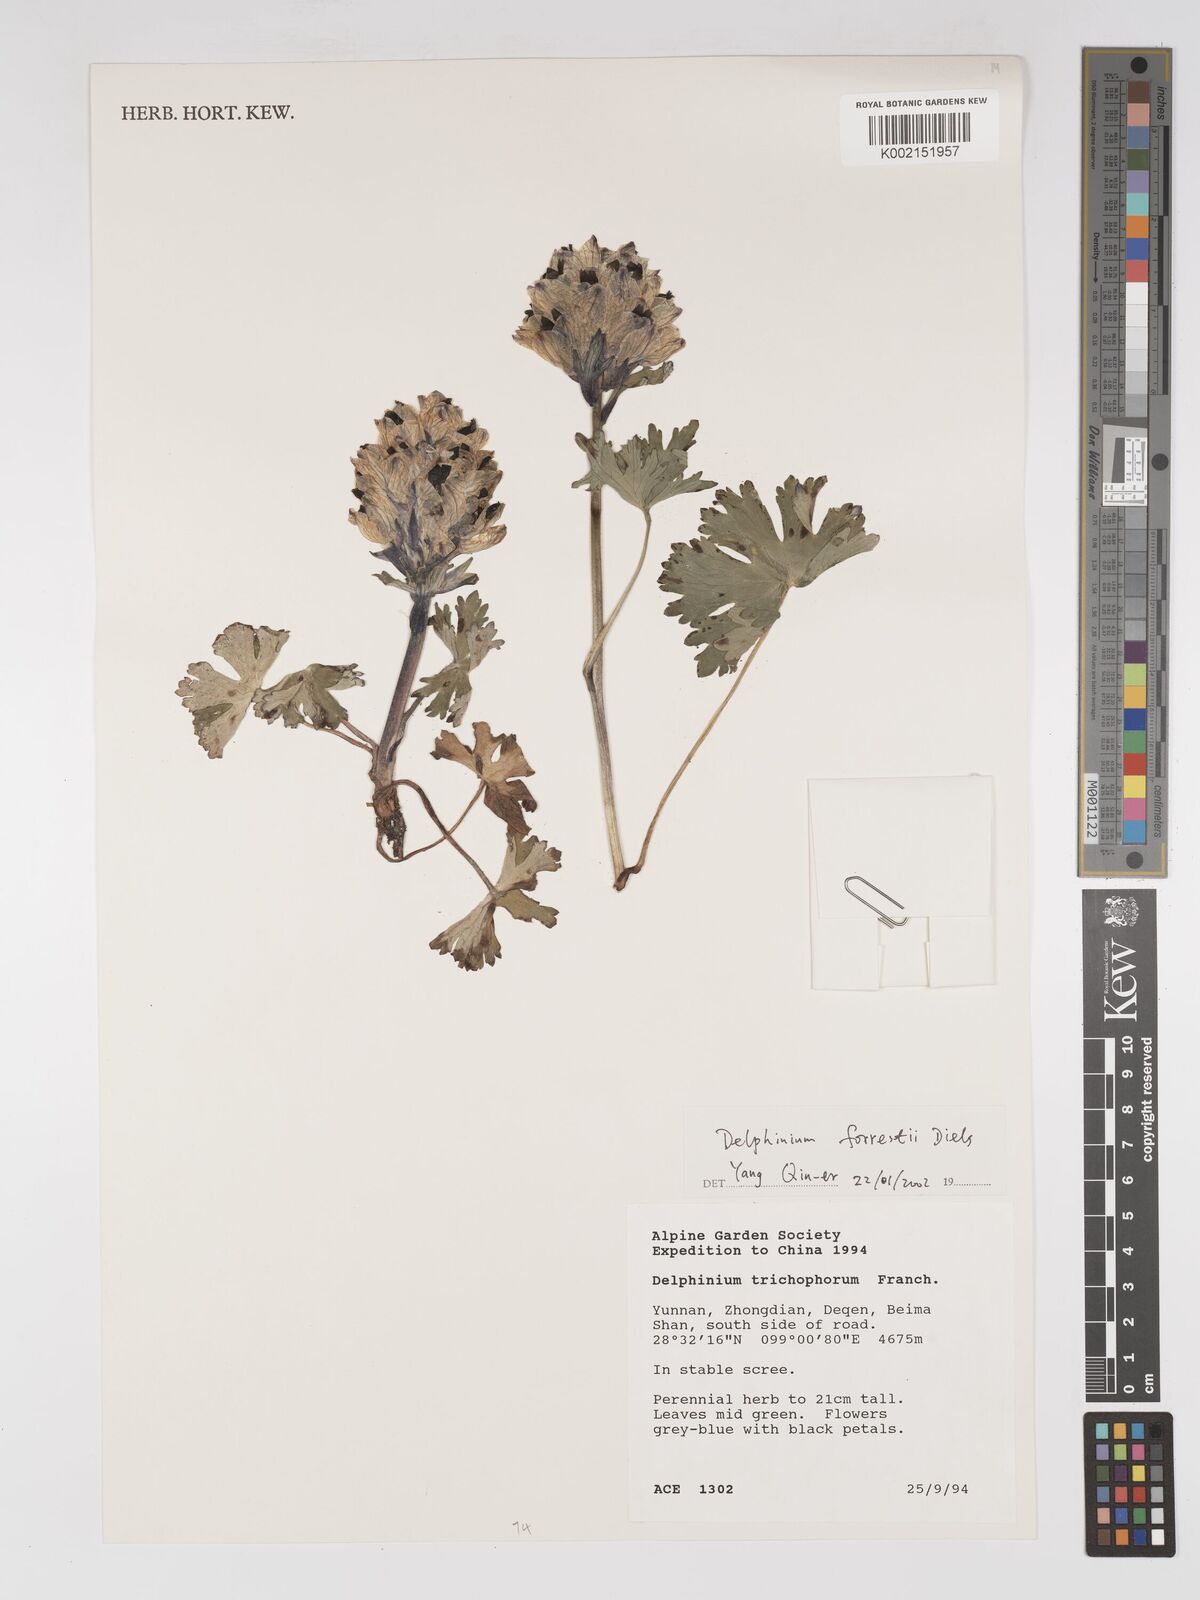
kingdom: Plantae
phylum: Tracheophyta
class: Magnoliopsida
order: Ranunculales
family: Ranunculaceae
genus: Delphinium
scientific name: Delphinium trichophorum
